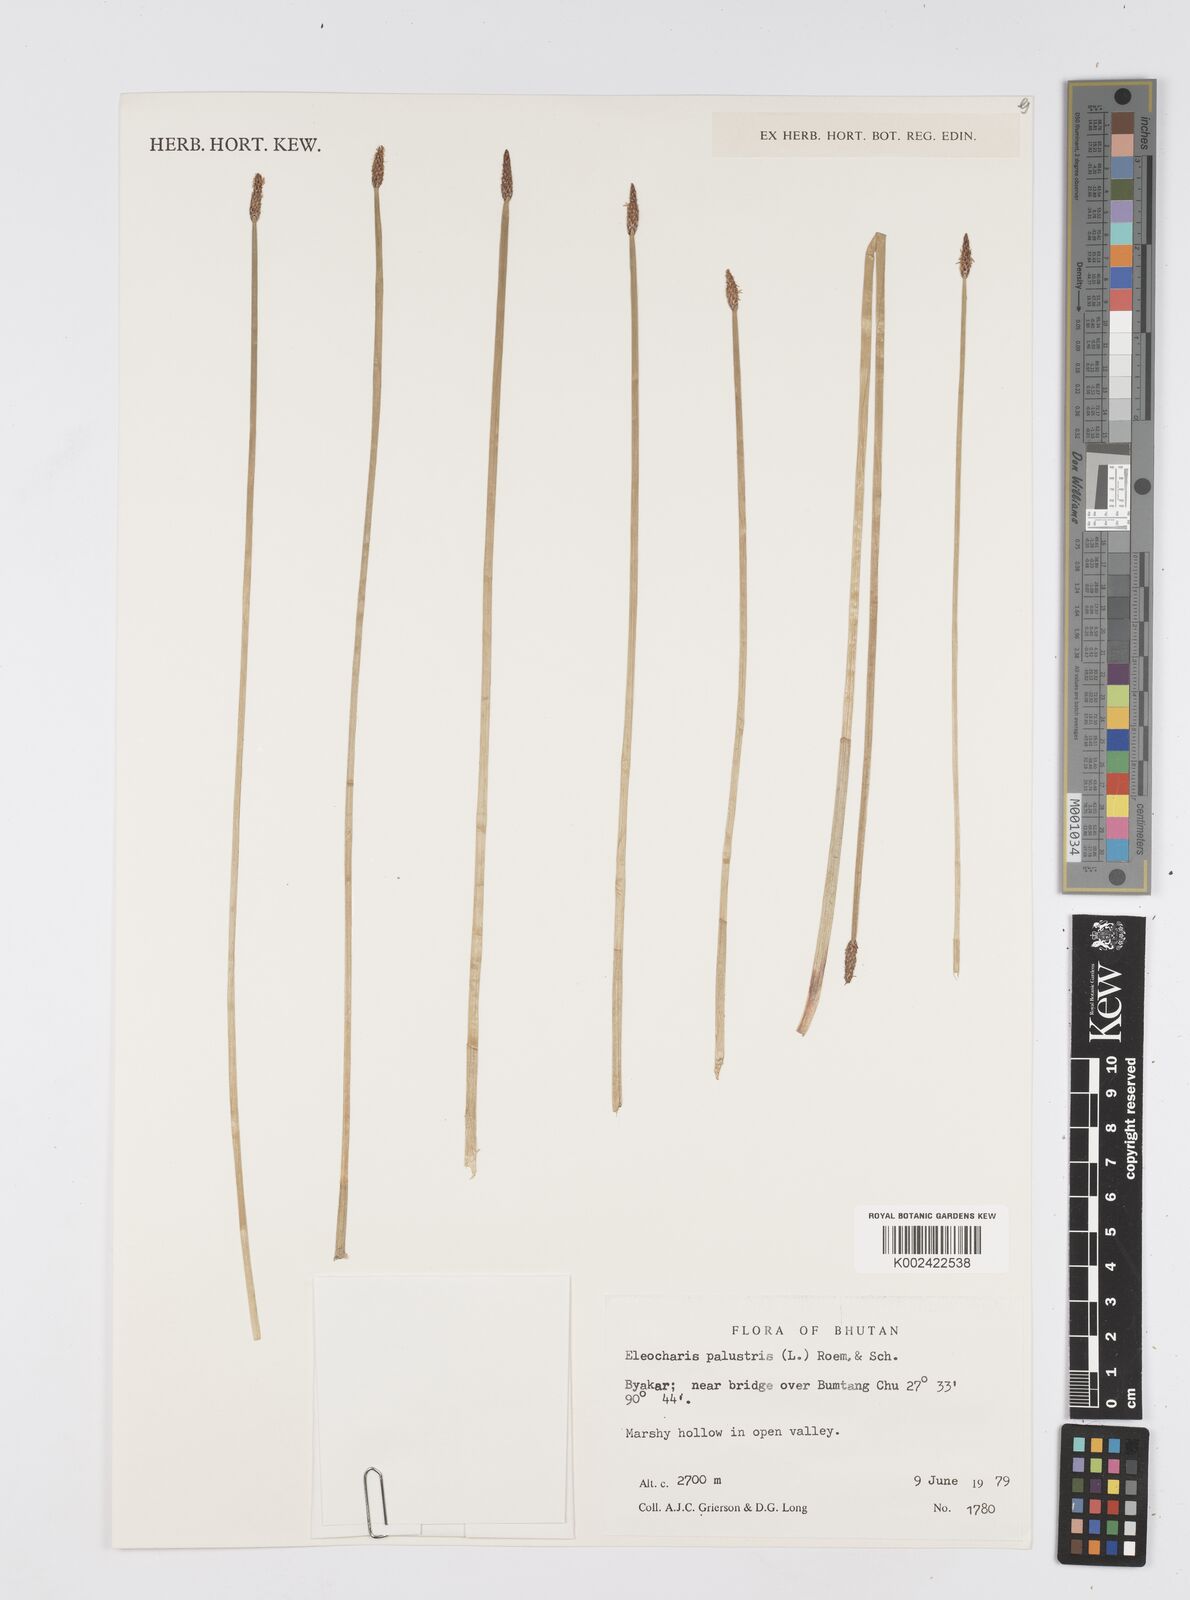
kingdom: Plantae
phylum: Tracheophyta
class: Liliopsida
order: Poales
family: Cyperaceae
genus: Eleocharis
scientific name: Eleocharis palustris
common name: Common spike-rush
